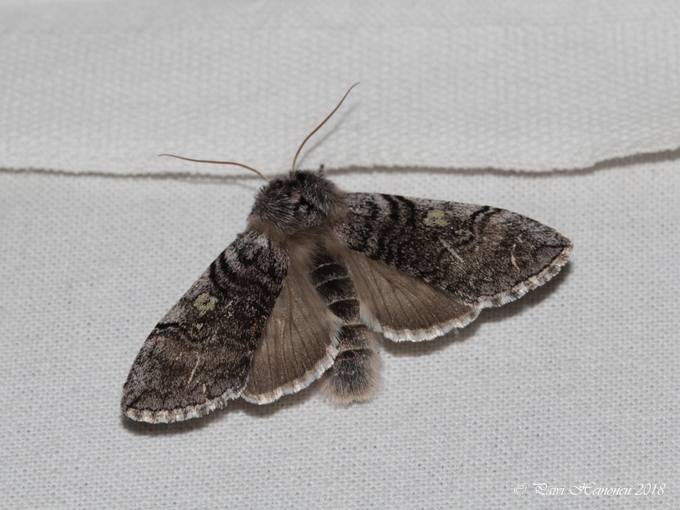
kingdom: Animalia
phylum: Arthropoda
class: Insecta
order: Lepidoptera
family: Drepanidae
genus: Achlya
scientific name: Achlya flavicornis
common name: Yellow horned
